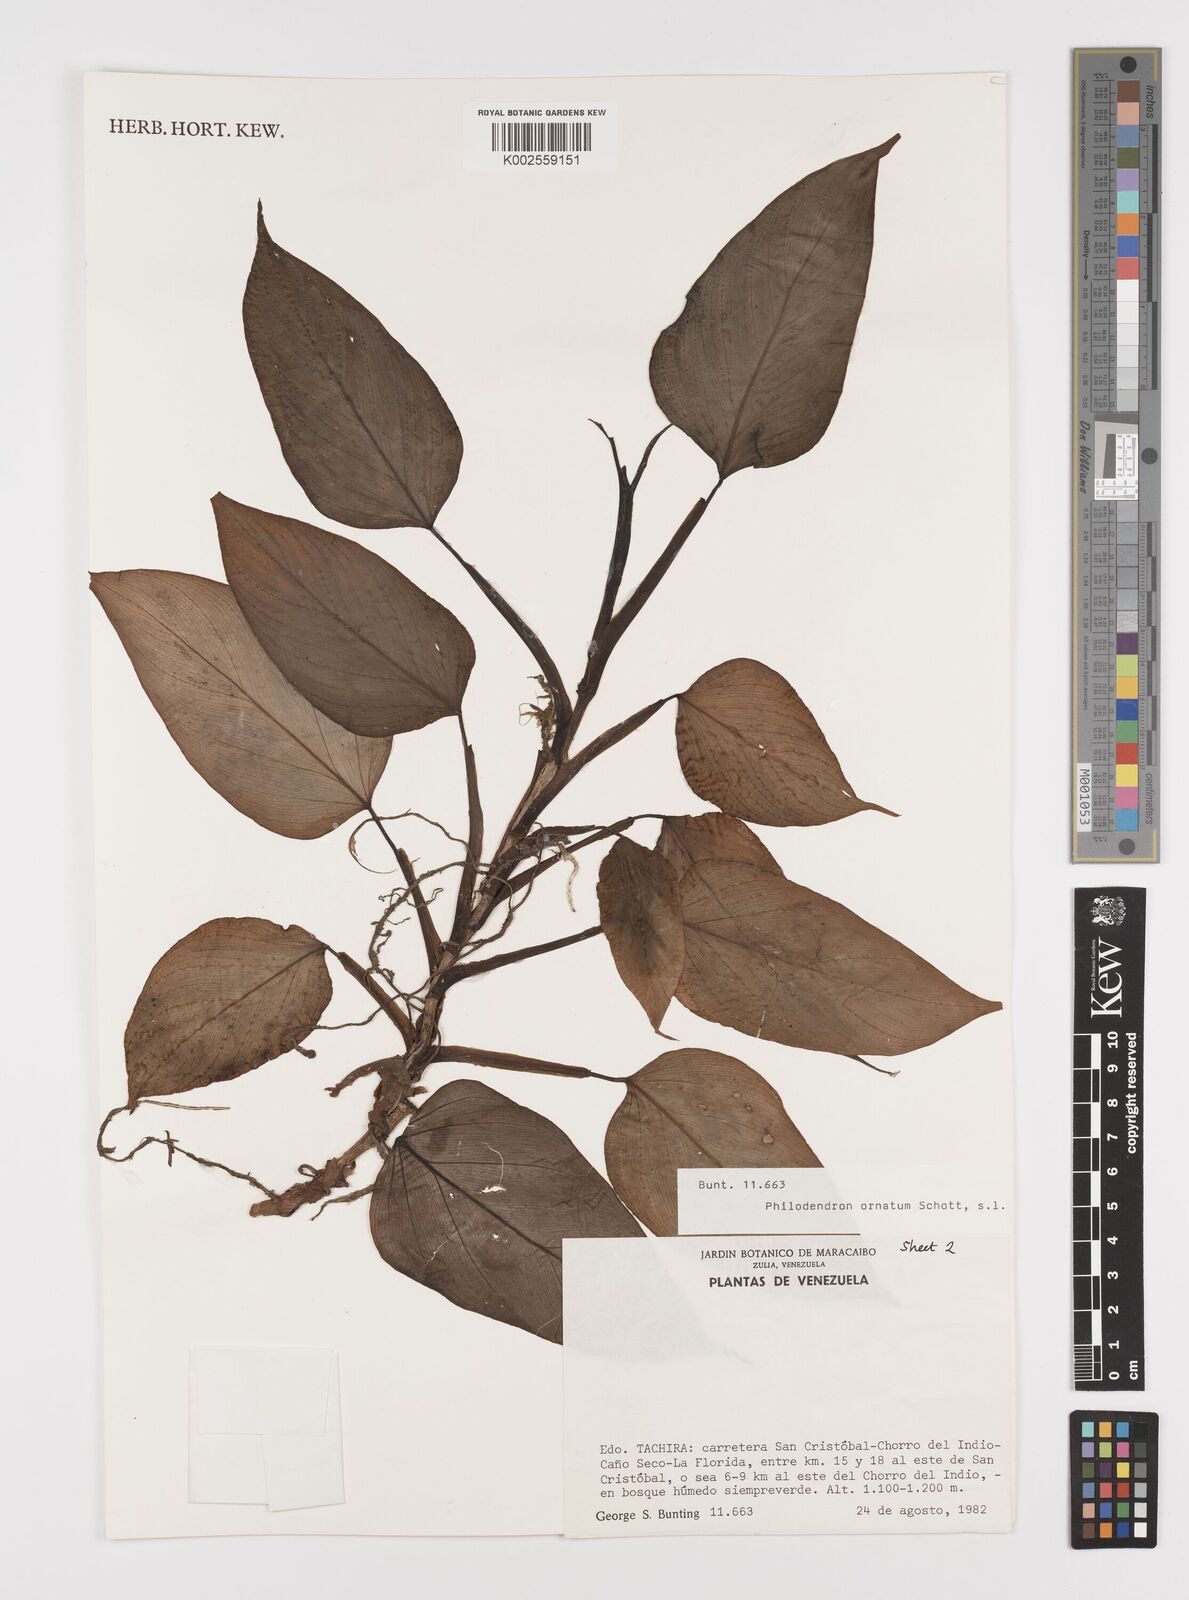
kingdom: Plantae
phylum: Tracheophyta
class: Liliopsida
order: Alismatales
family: Araceae
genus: Philodendron
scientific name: Philodendron ornatum
